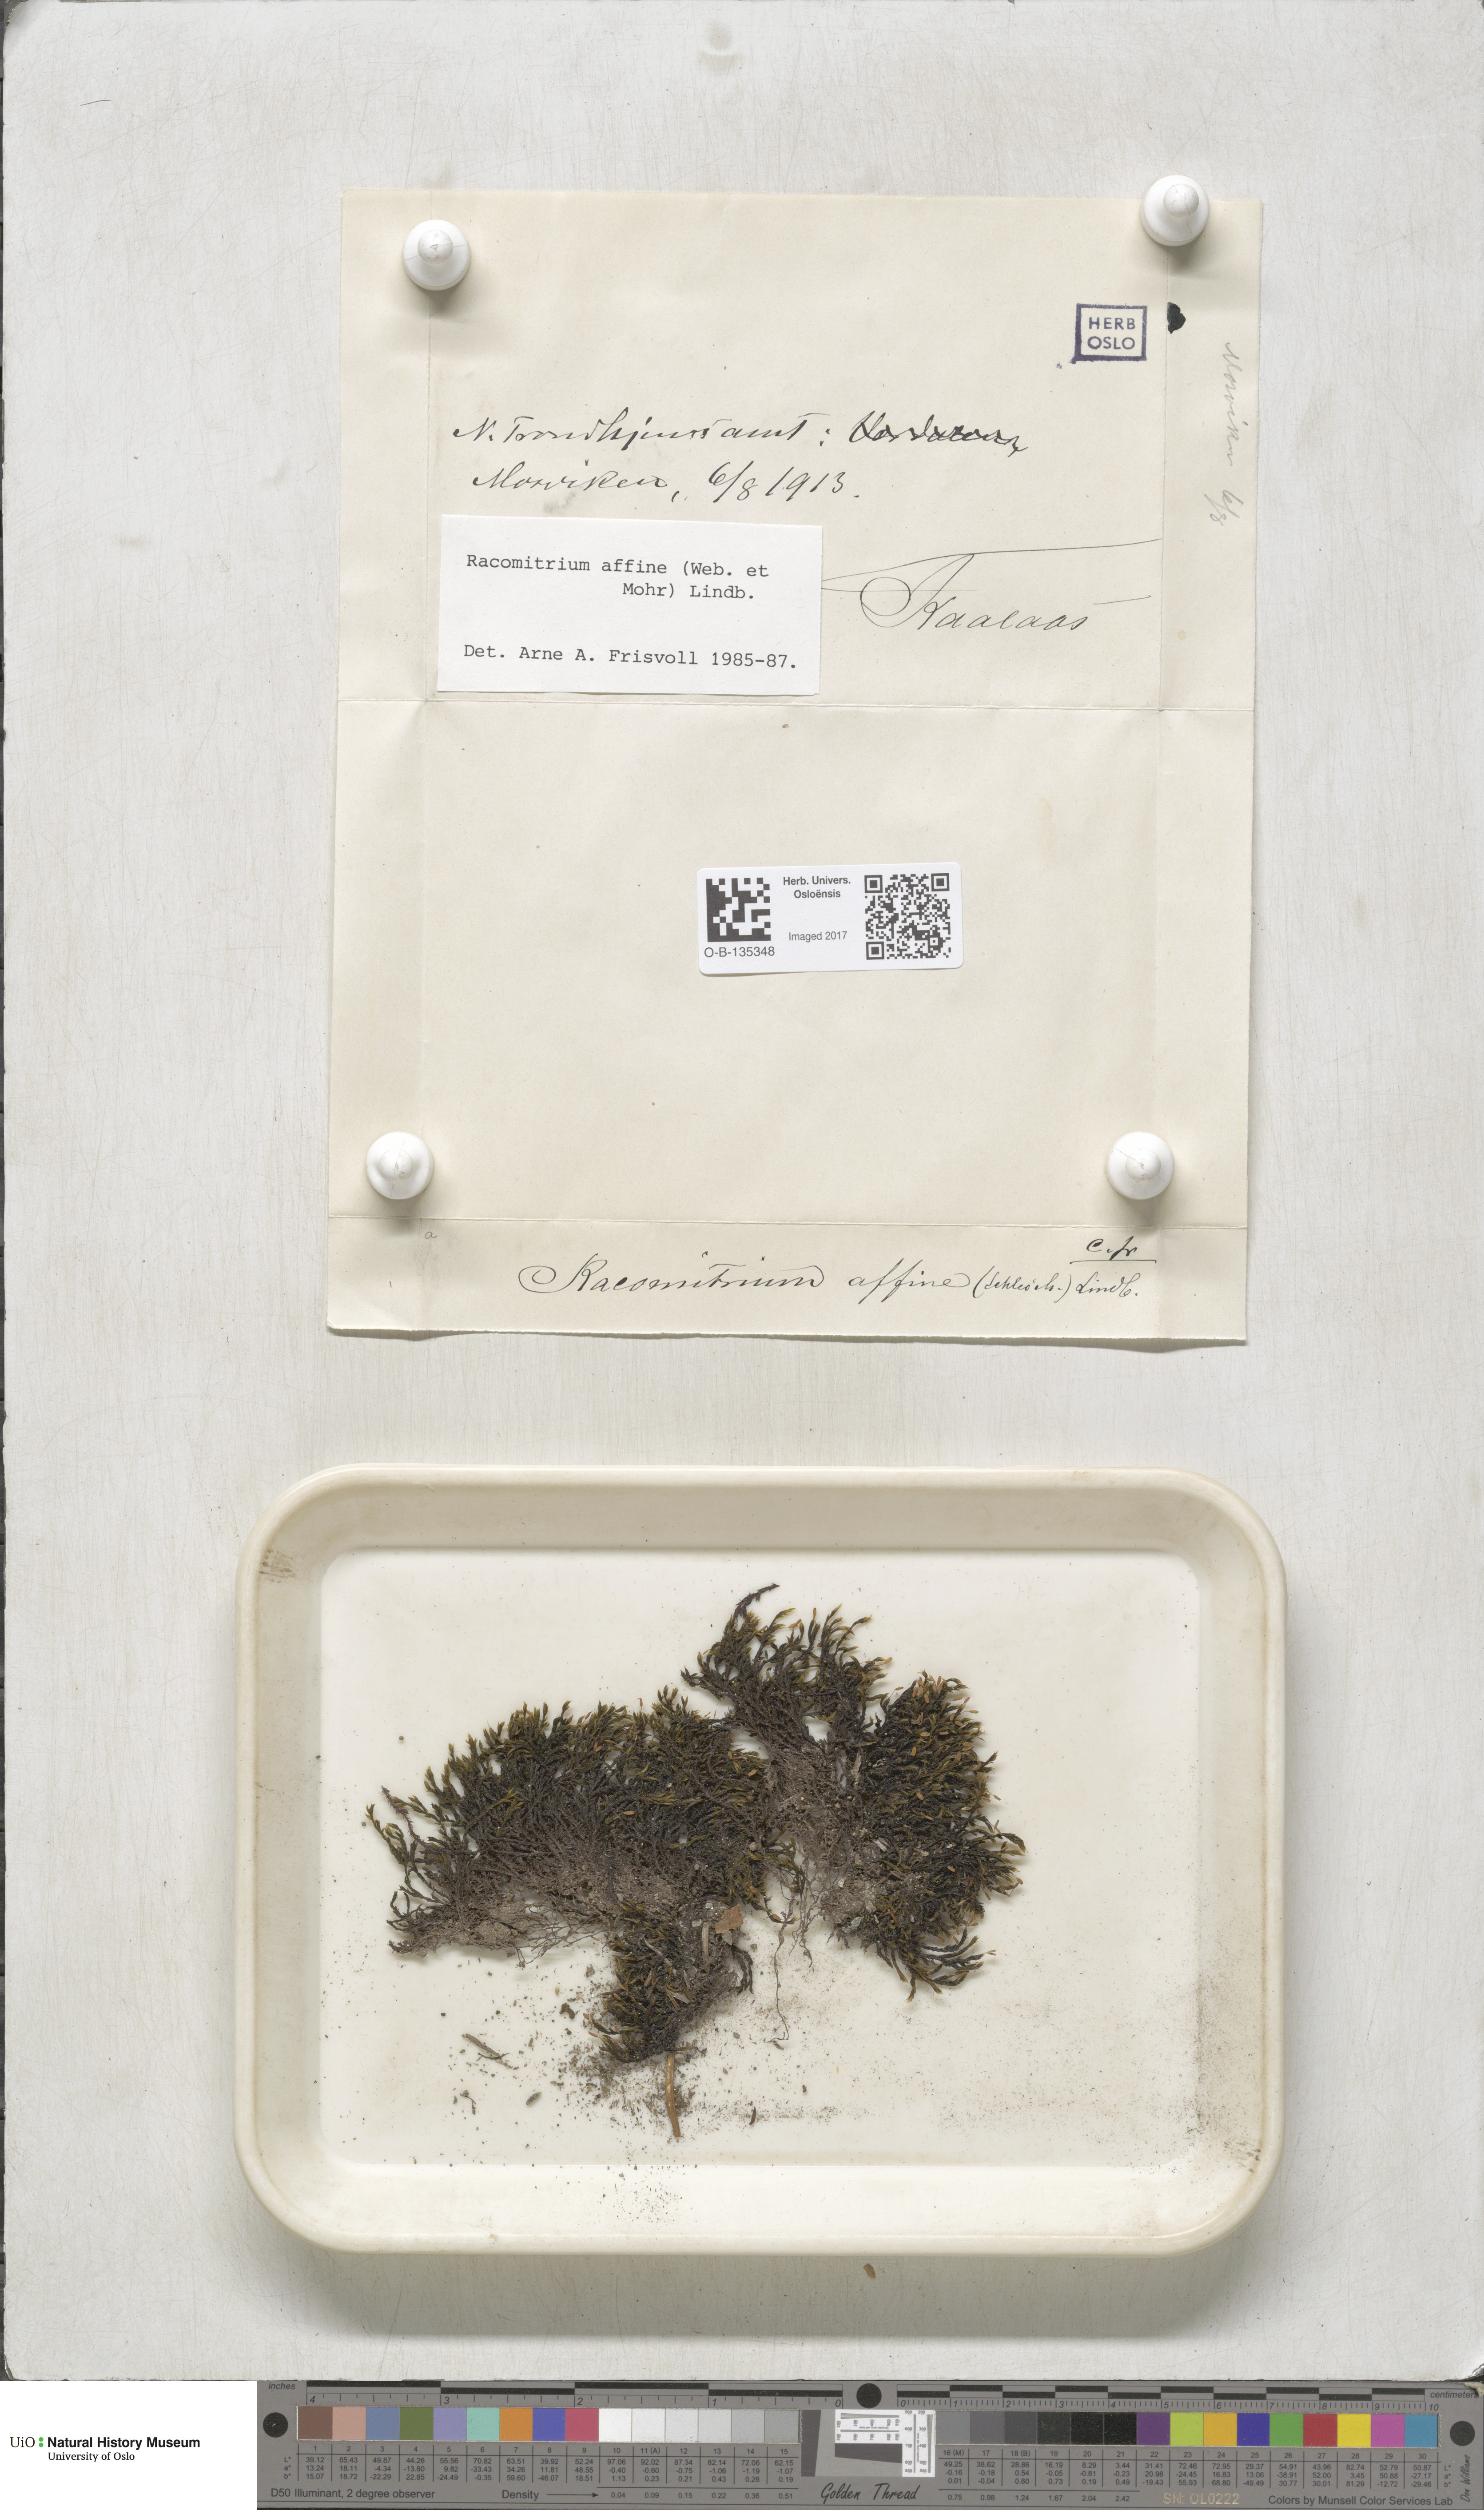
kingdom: Plantae
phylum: Bryophyta
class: Bryopsida
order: Grimmiales
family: Grimmiaceae
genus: Bucklandiella
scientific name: Bucklandiella affinis
